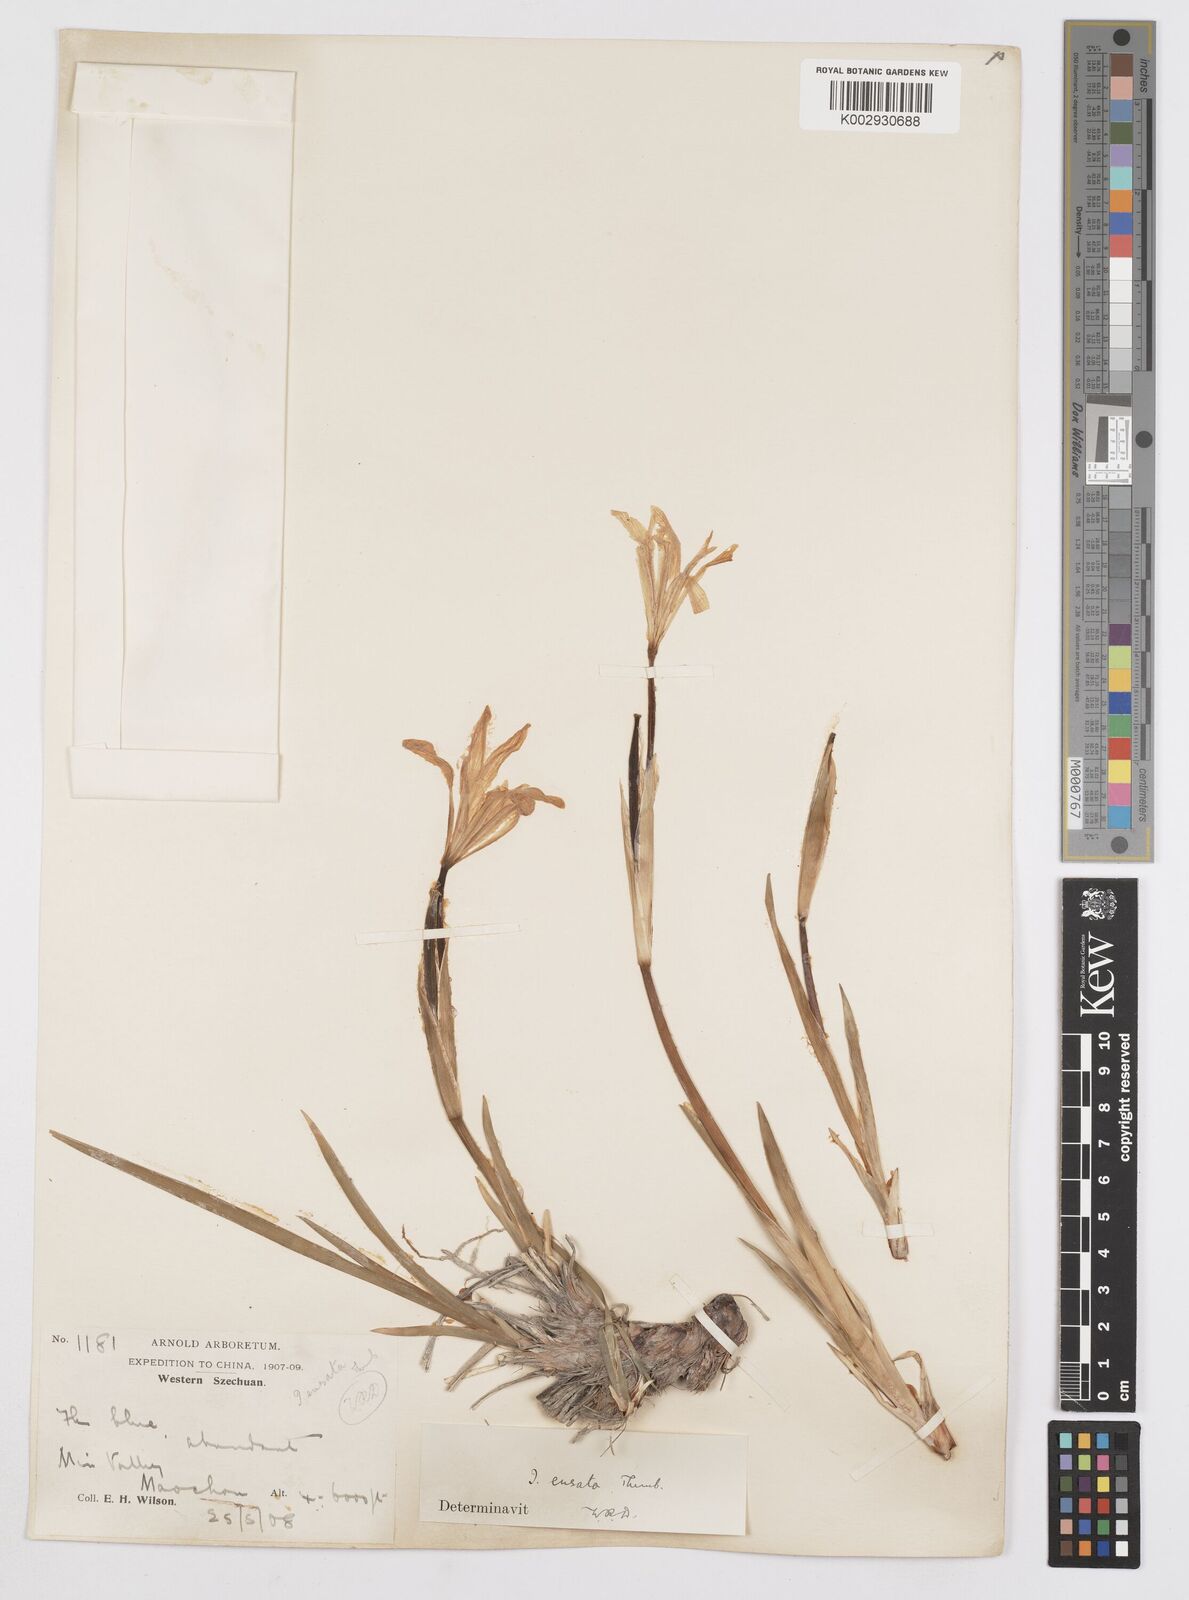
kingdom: Plantae
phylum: Tracheophyta
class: Liliopsida
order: Asparagales
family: Iridaceae
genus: Iris
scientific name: Iris ensata
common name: Beaked iris
